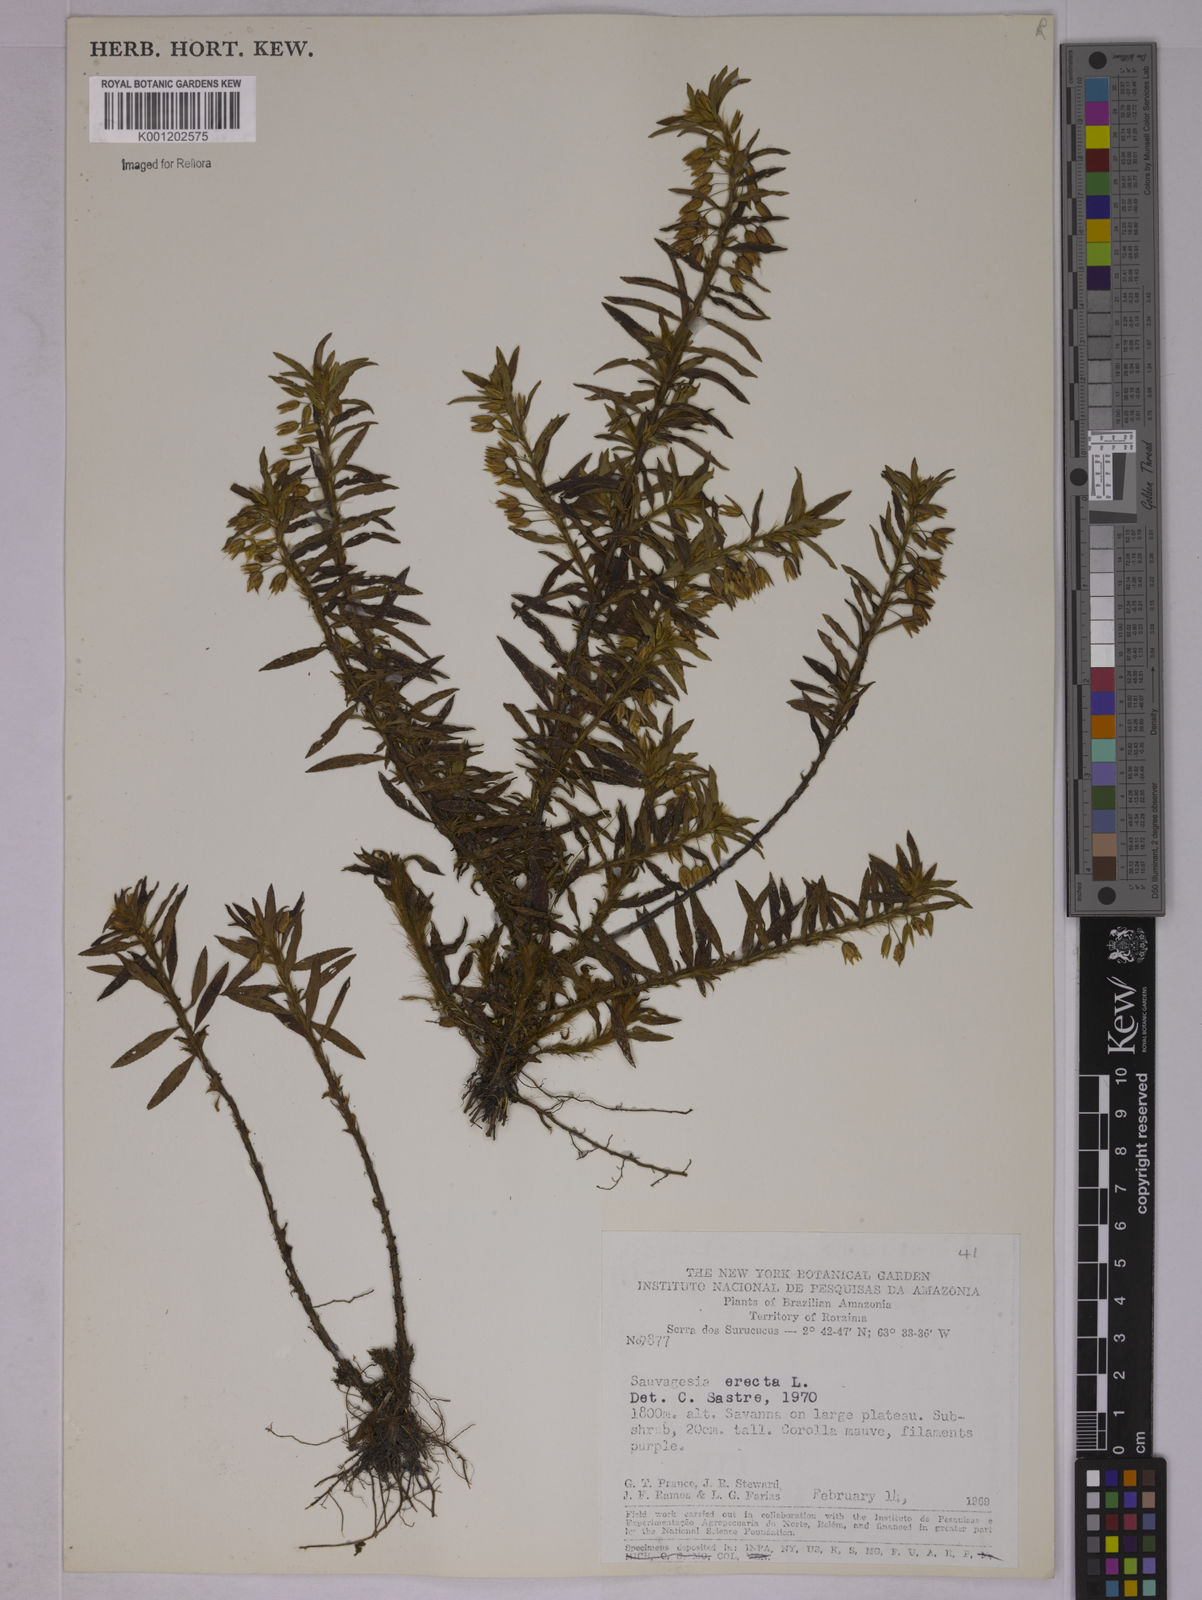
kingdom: Plantae
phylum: Tracheophyta
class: Magnoliopsida
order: Malpighiales
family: Ochnaceae
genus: Sauvagesia
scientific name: Sauvagesia erecta
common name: Creole tea
